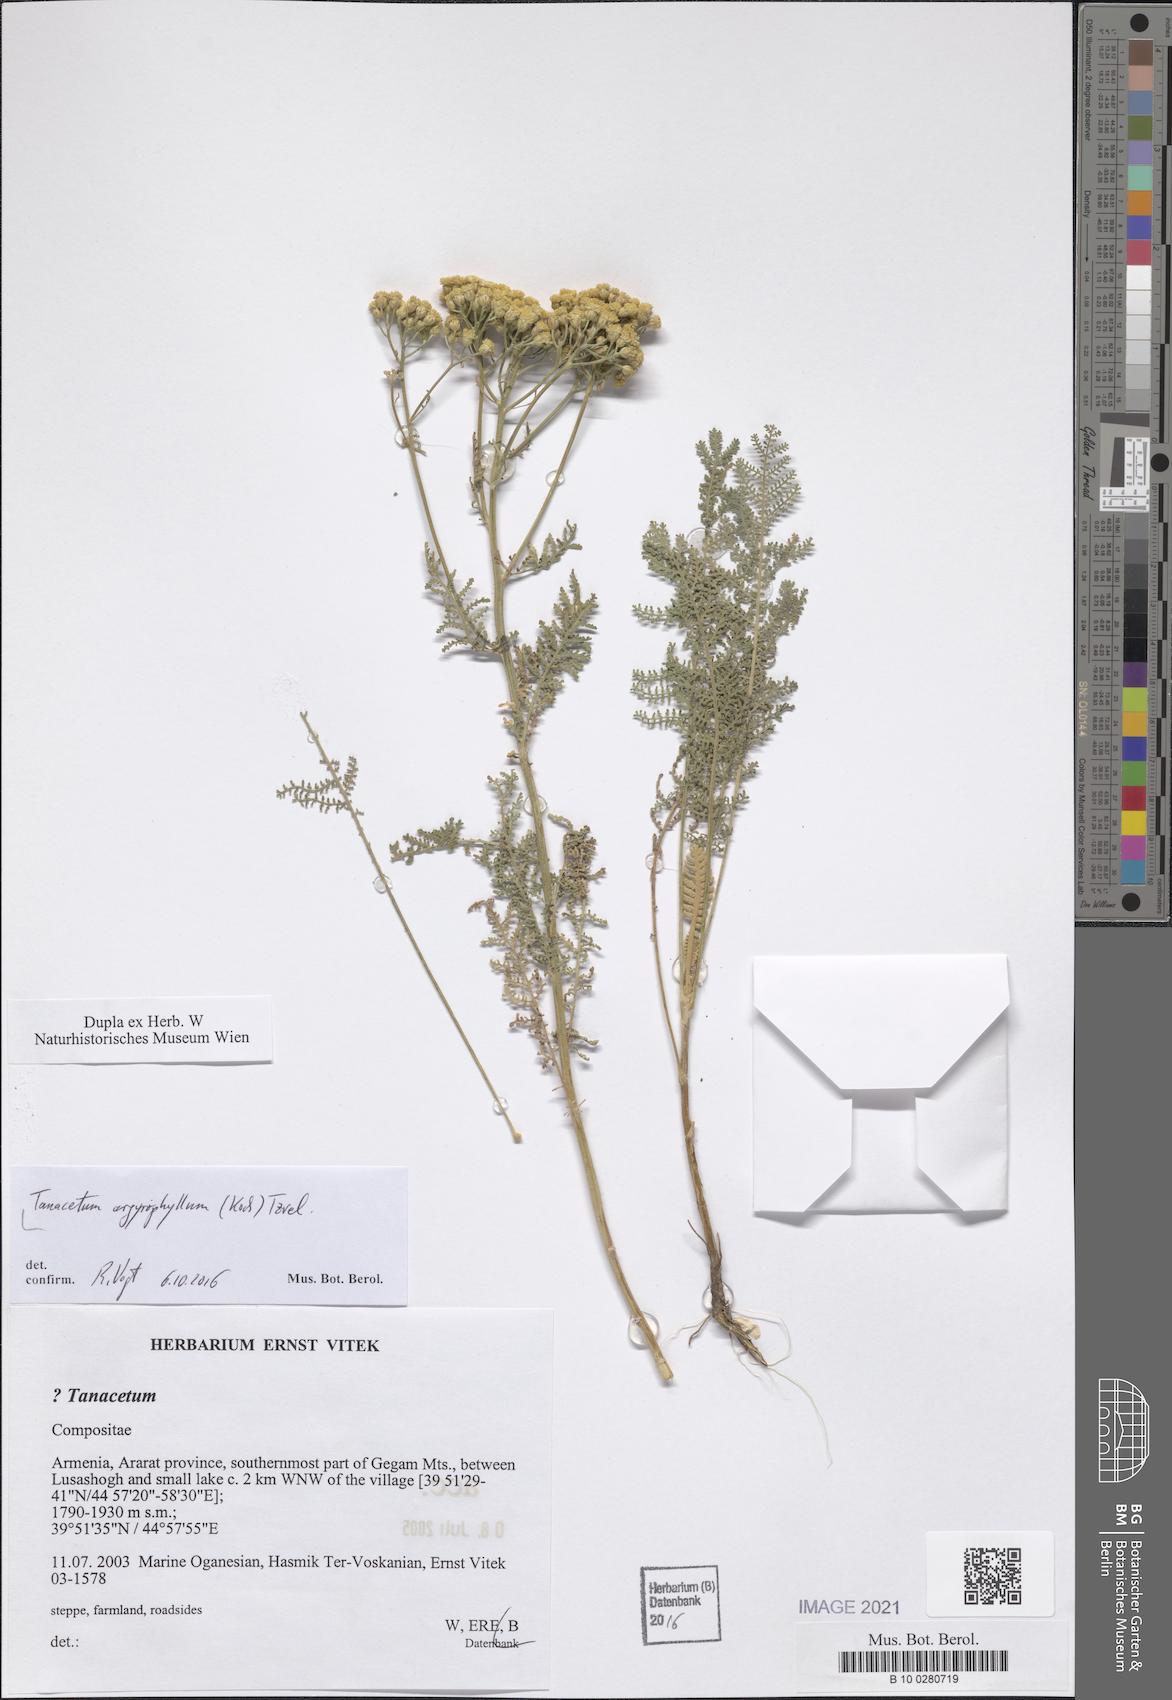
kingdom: Plantae
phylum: Tracheophyta
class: Magnoliopsida
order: Asterales
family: Asteraceae
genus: Tanacetum
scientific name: Tanacetum polycephalum
